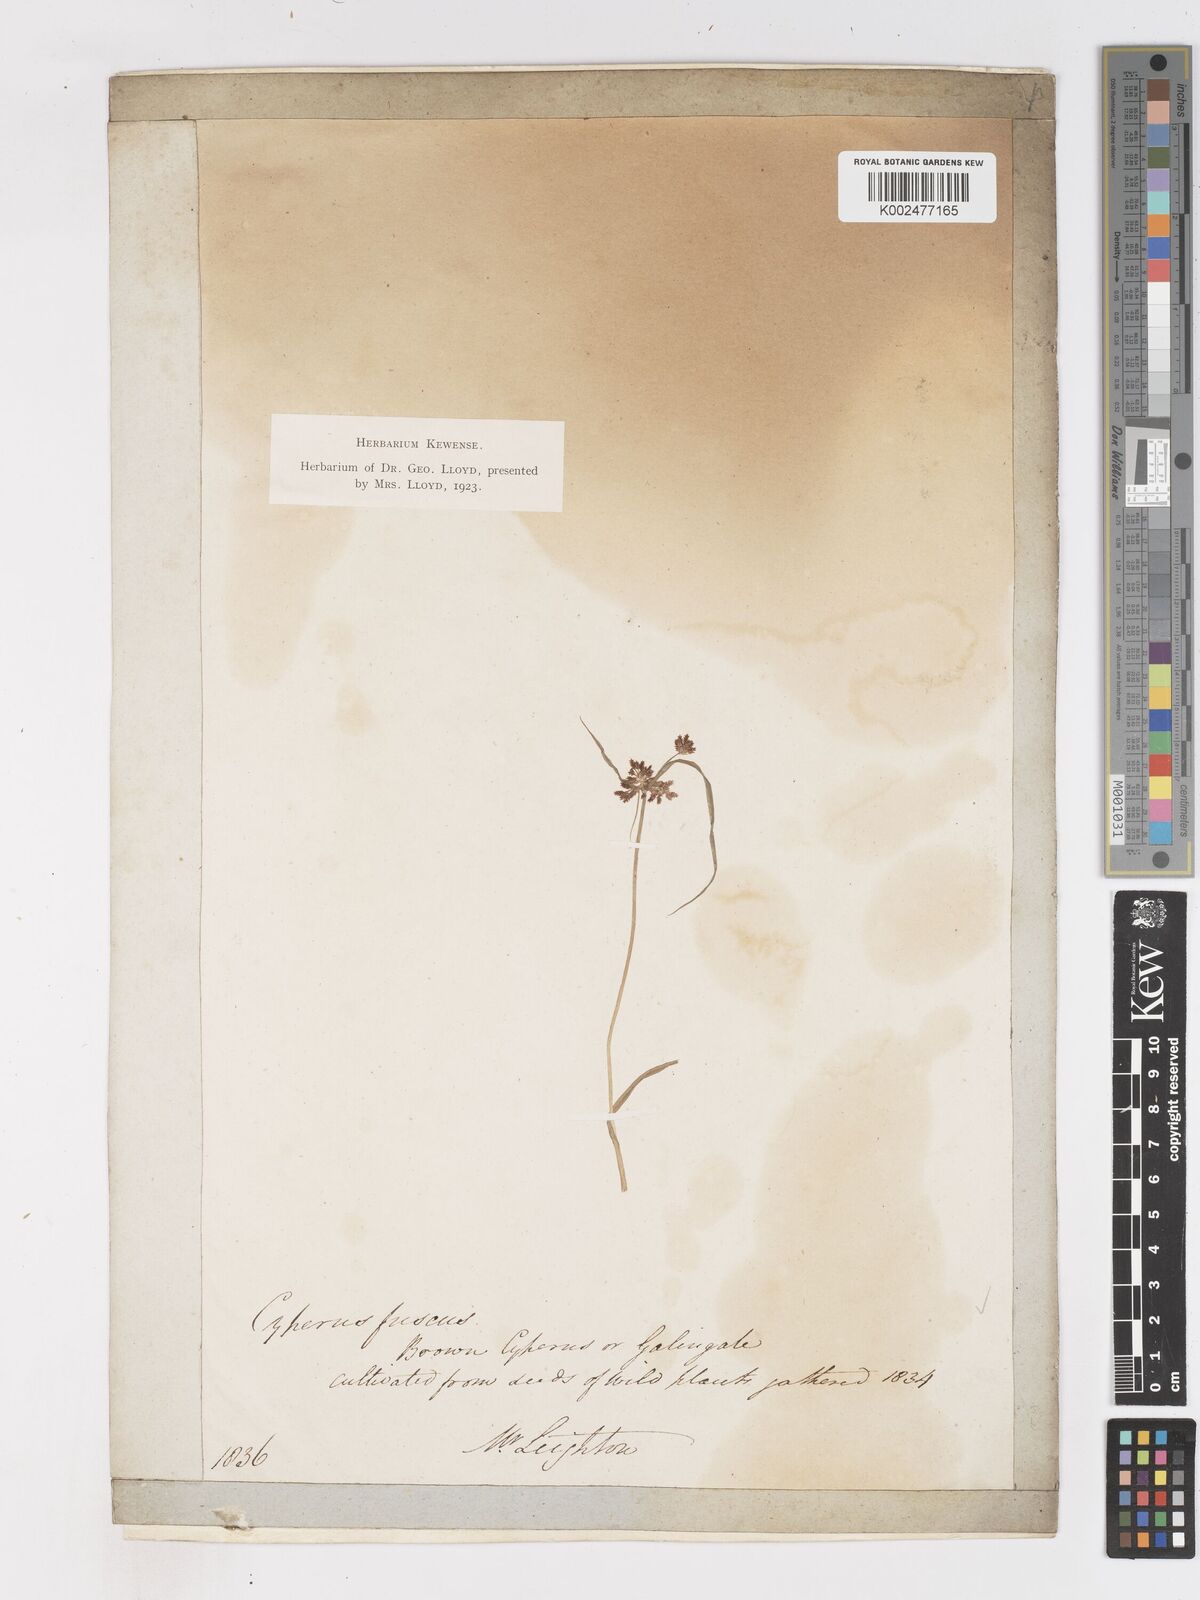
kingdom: Plantae
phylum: Tracheophyta
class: Liliopsida
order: Poales
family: Cyperaceae
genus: Cyperus
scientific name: Cyperus fuscus
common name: Brown galingale
